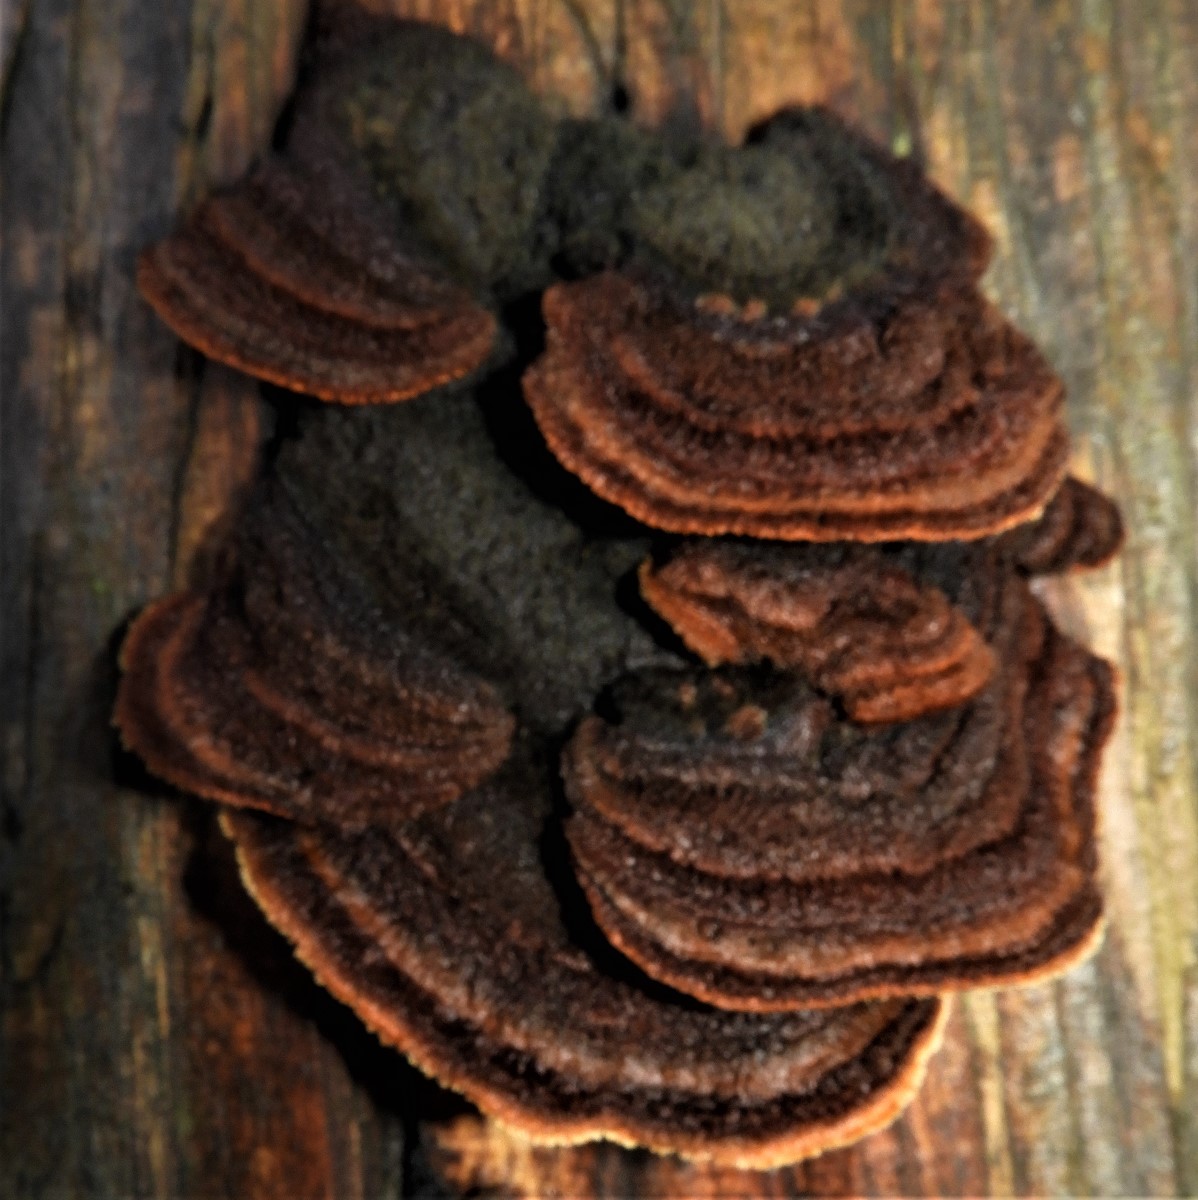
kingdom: Fungi
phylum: Basidiomycota
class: Agaricomycetes
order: Gloeophyllales
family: Gloeophyllaceae
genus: Gloeophyllum
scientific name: Gloeophyllum sepiarium
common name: fyrre-korkhat
